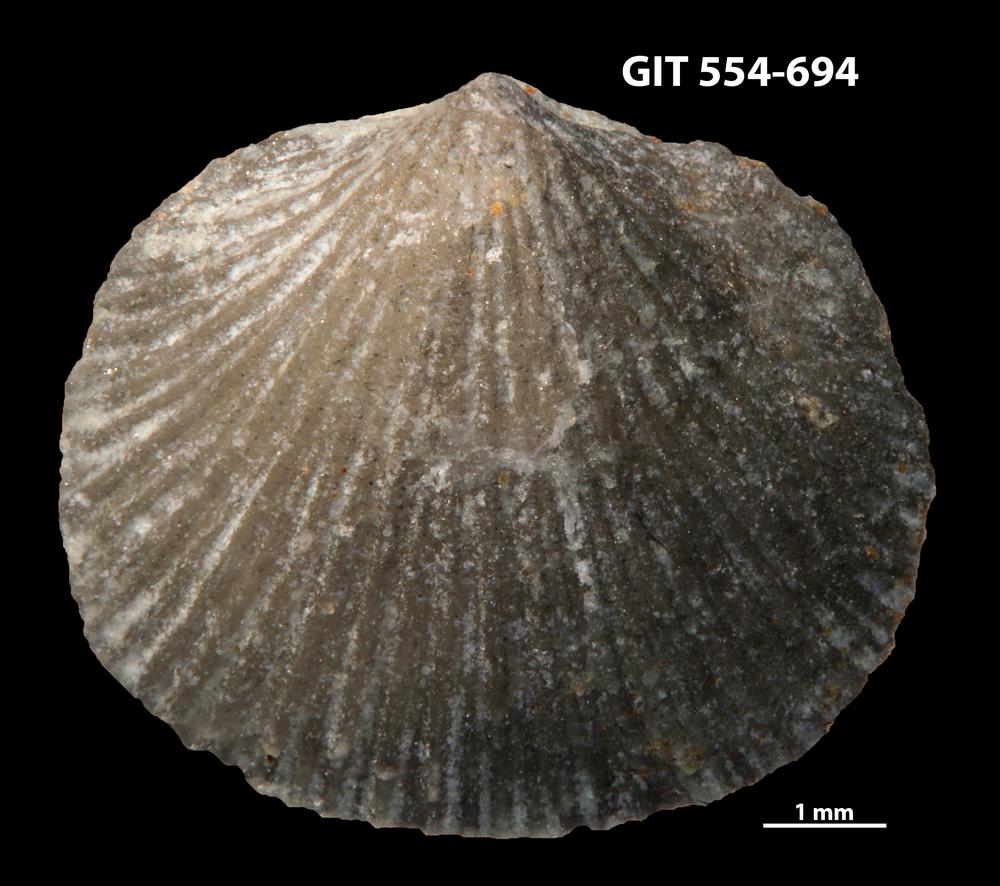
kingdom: Animalia
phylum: Brachiopoda
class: Rhynchonellata
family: Rhipidomellidae
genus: Mendacella
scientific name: Mendacella Orthis hybrida
